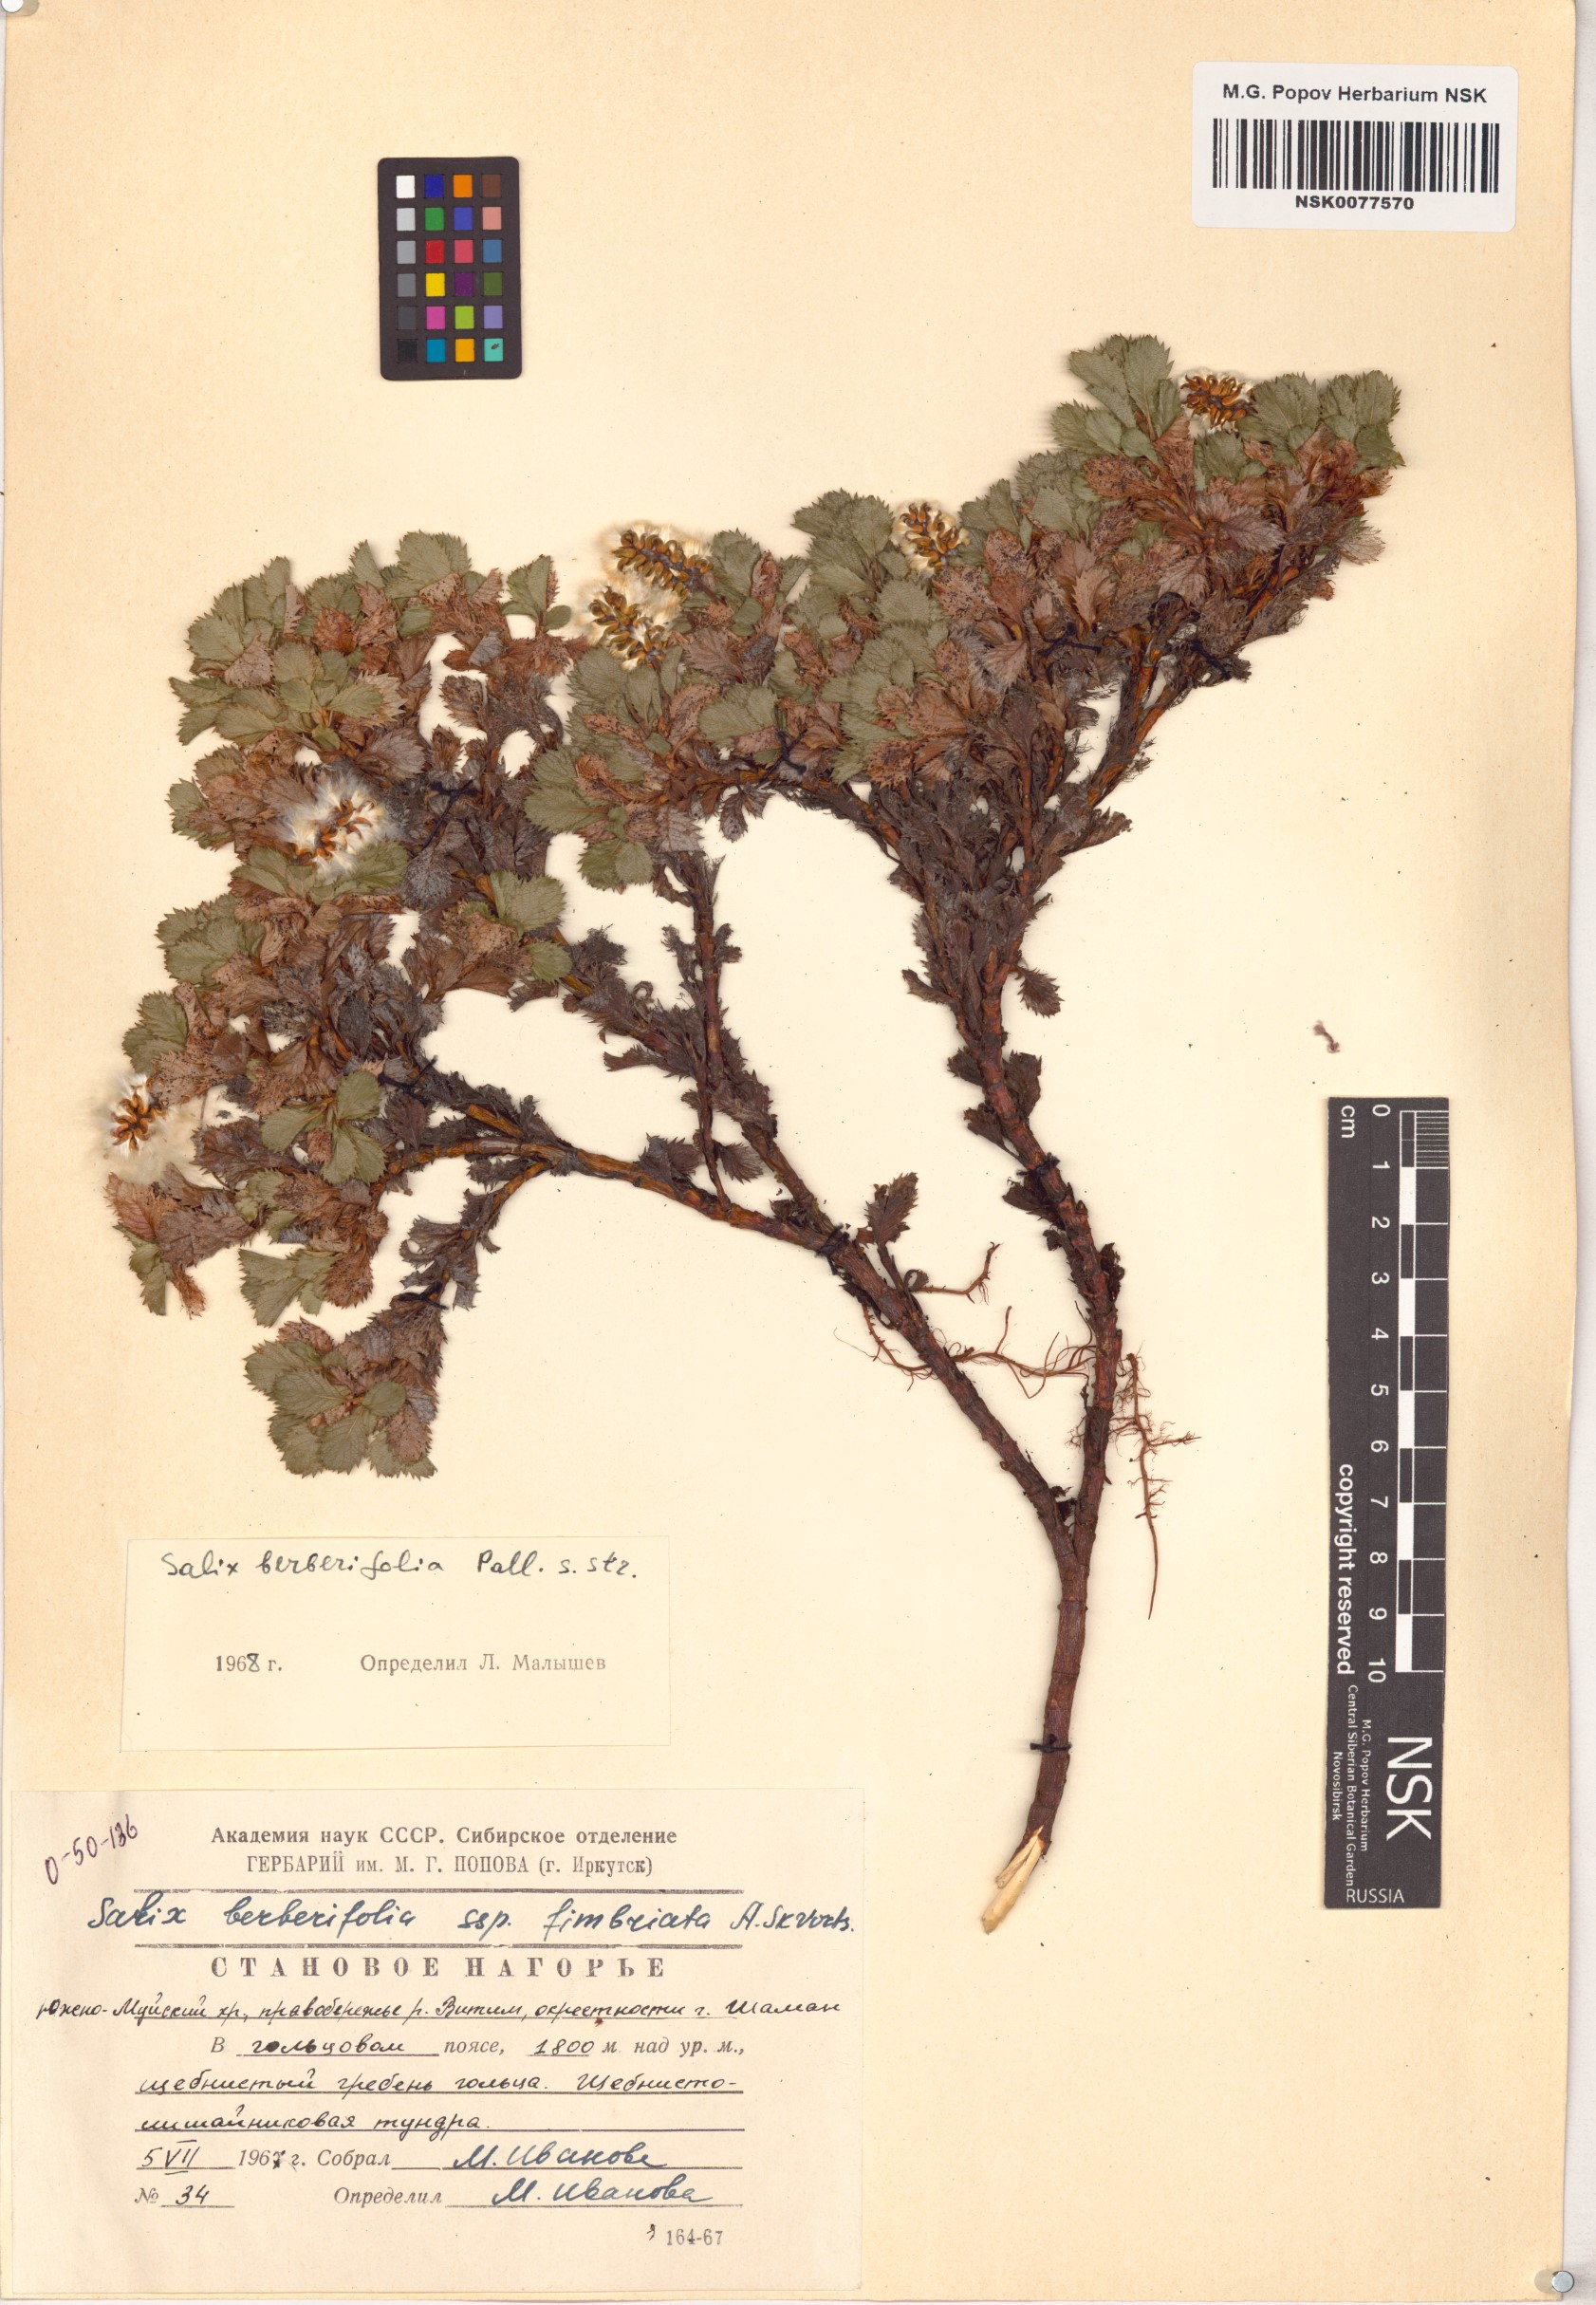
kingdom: Plantae
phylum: Tracheophyta
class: Magnoliopsida
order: Malpighiales
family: Salicaceae
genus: Salix
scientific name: Salix berberifolia
